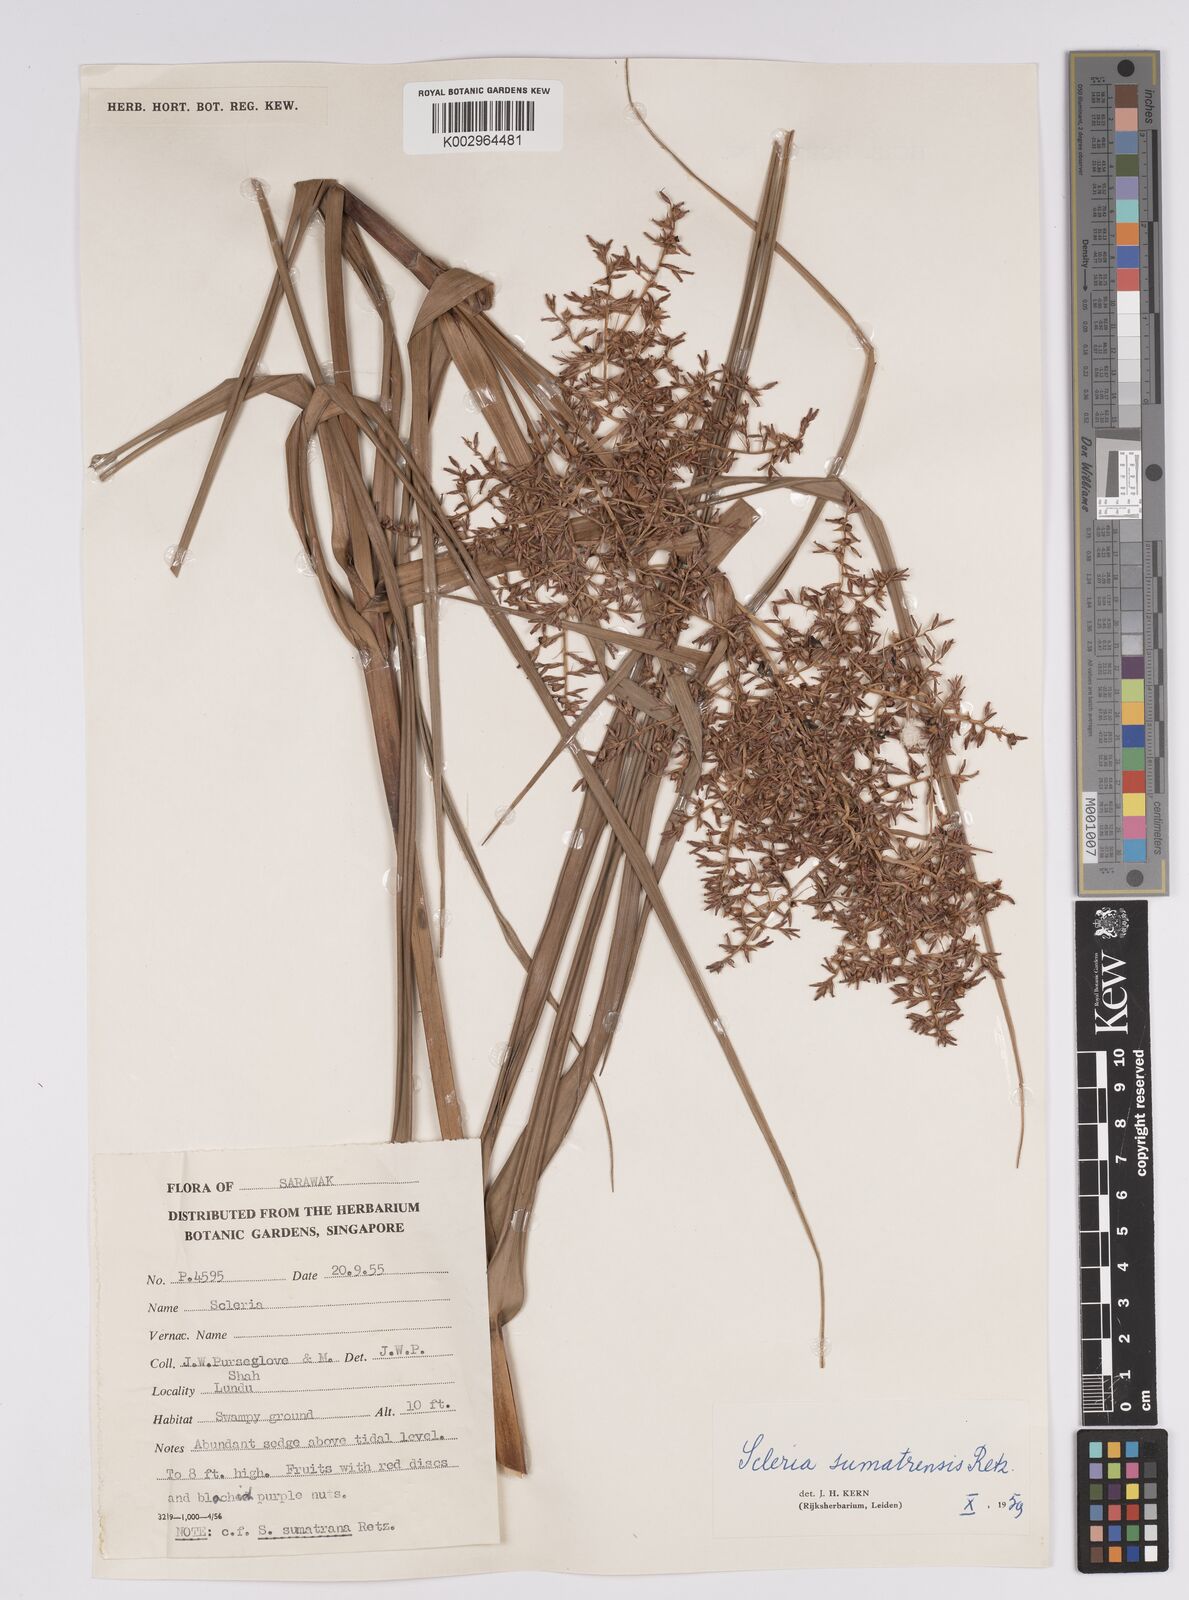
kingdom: Plantae
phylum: Tracheophyta
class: Liliopsida
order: Poales
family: Cyperaceae
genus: Scleria
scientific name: Scleria sumatrensis
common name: Sumatran scleria
